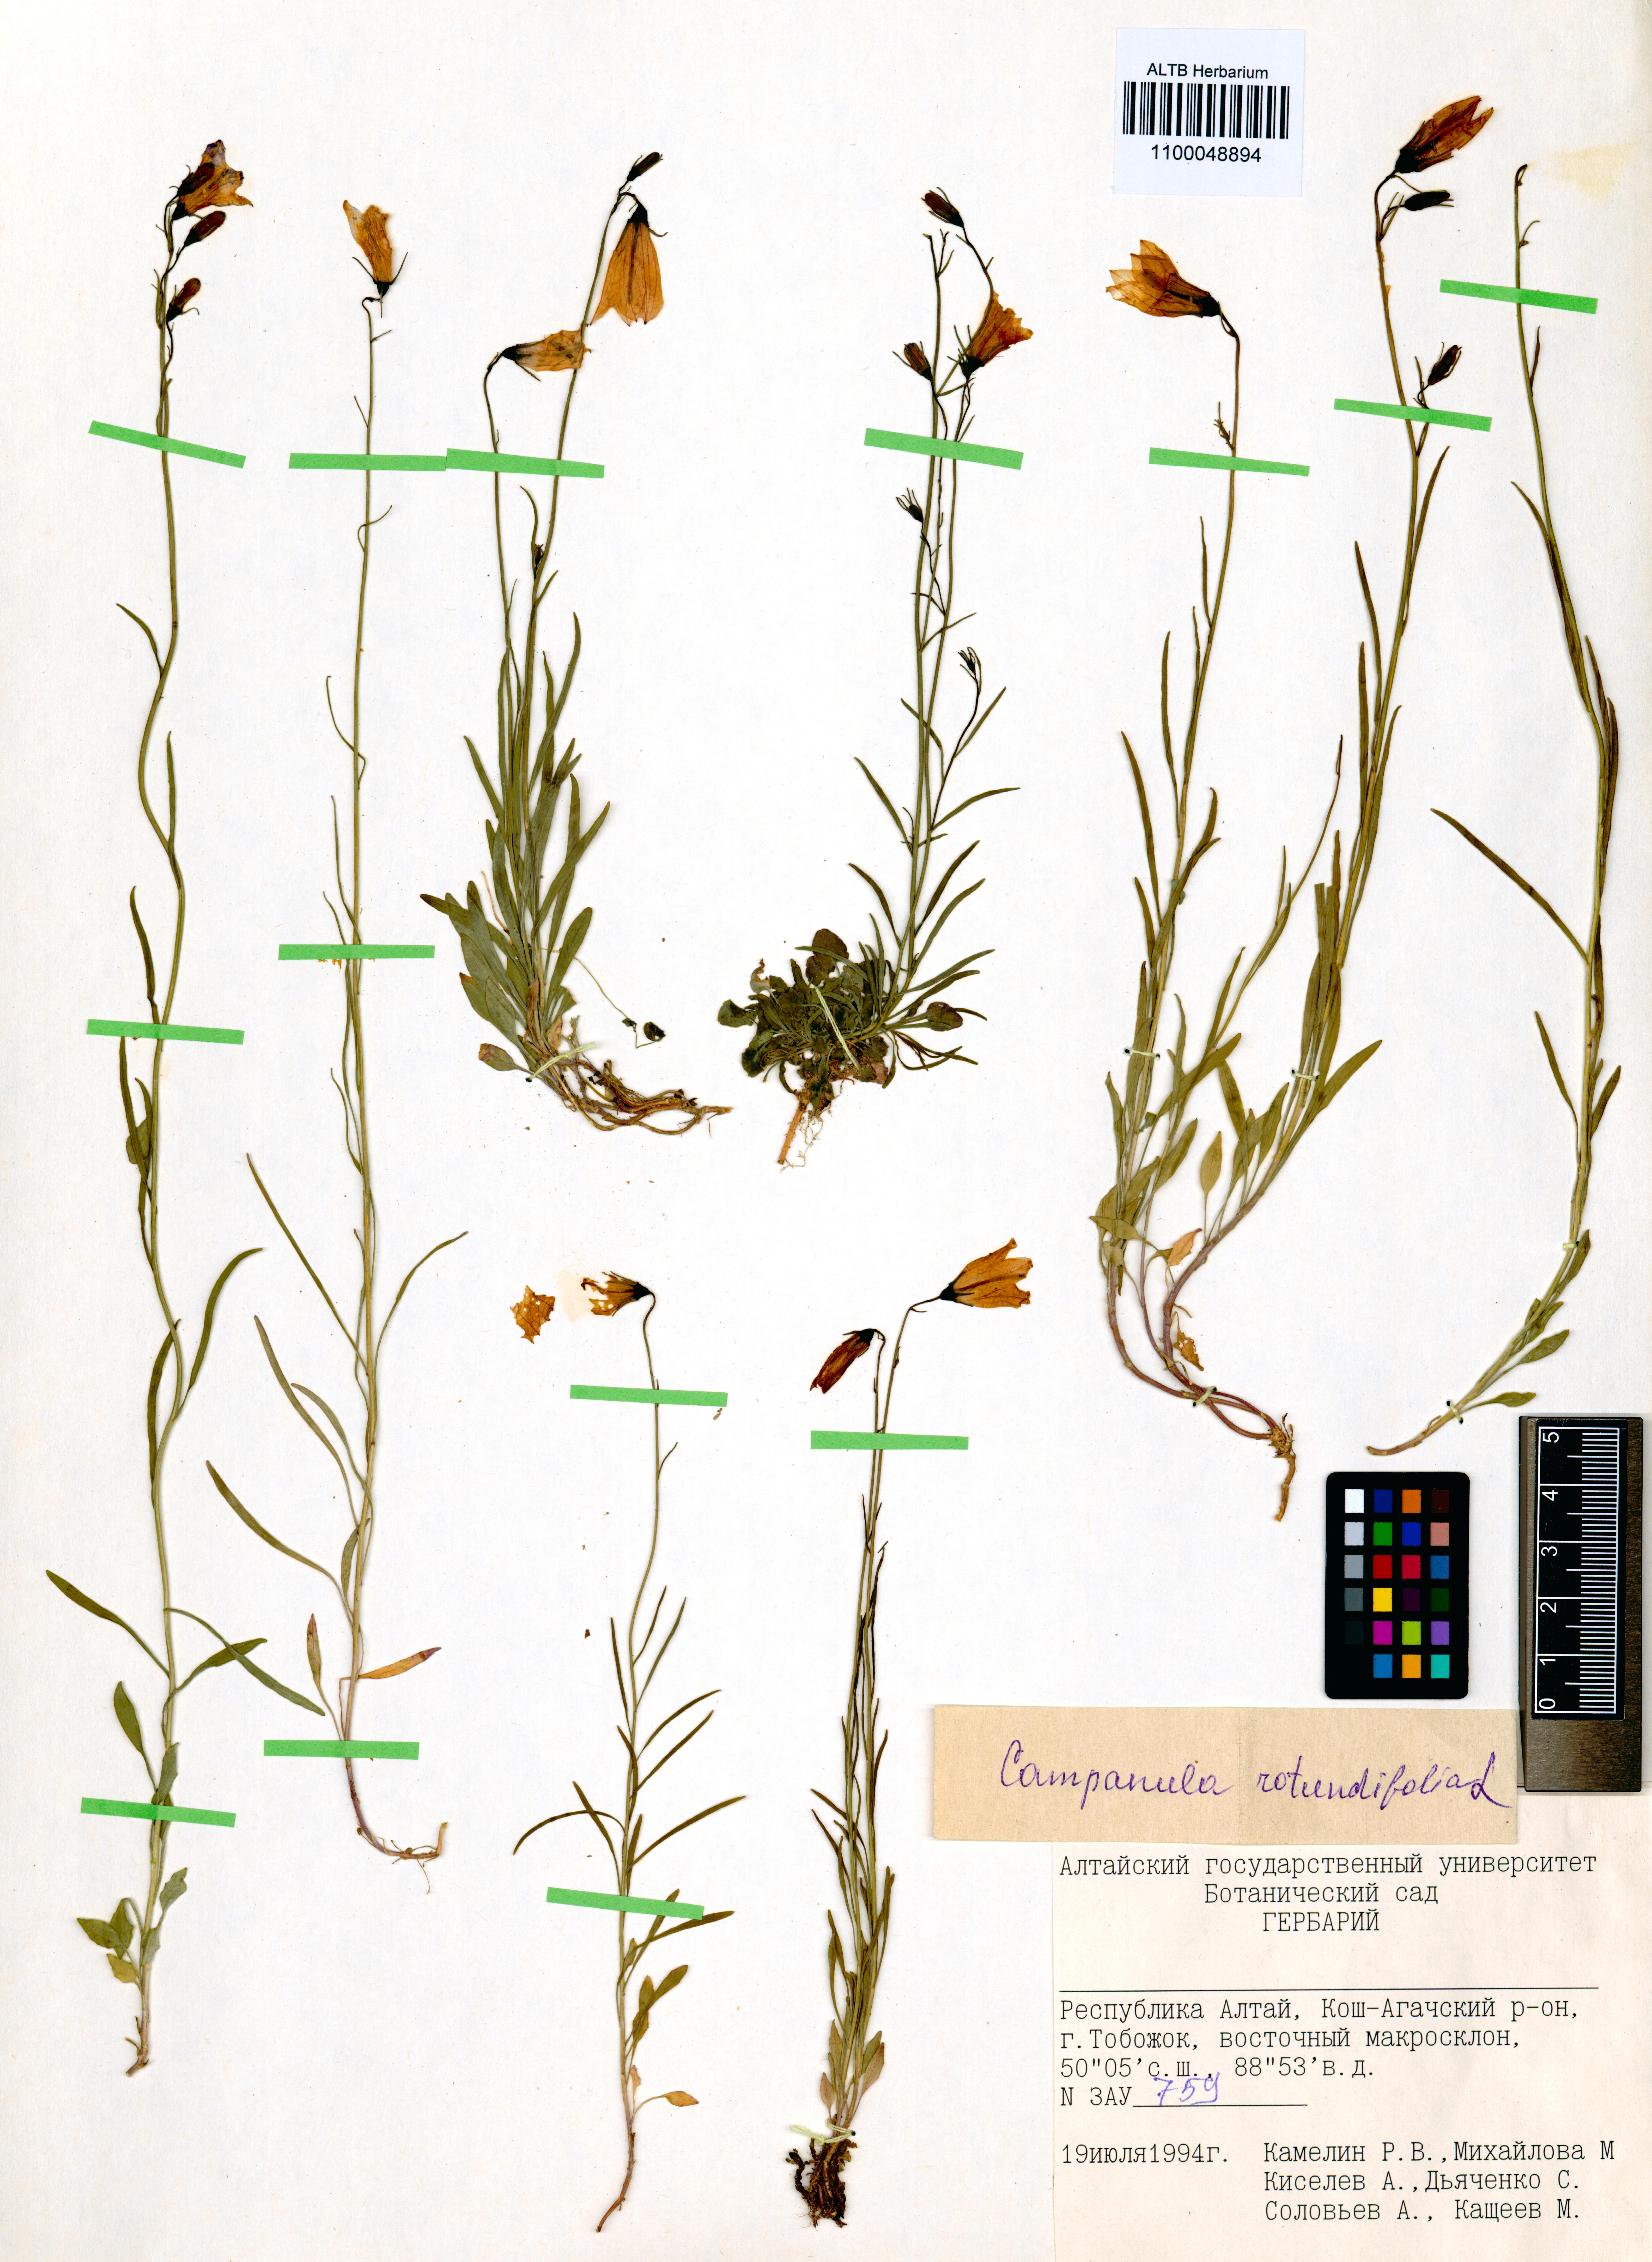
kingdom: Plantae
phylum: Tracheophyta
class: Magnoliopsida
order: Asterales
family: Campanulaceae
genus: Campanula
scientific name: Campanula rotundifolia
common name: Harebell
